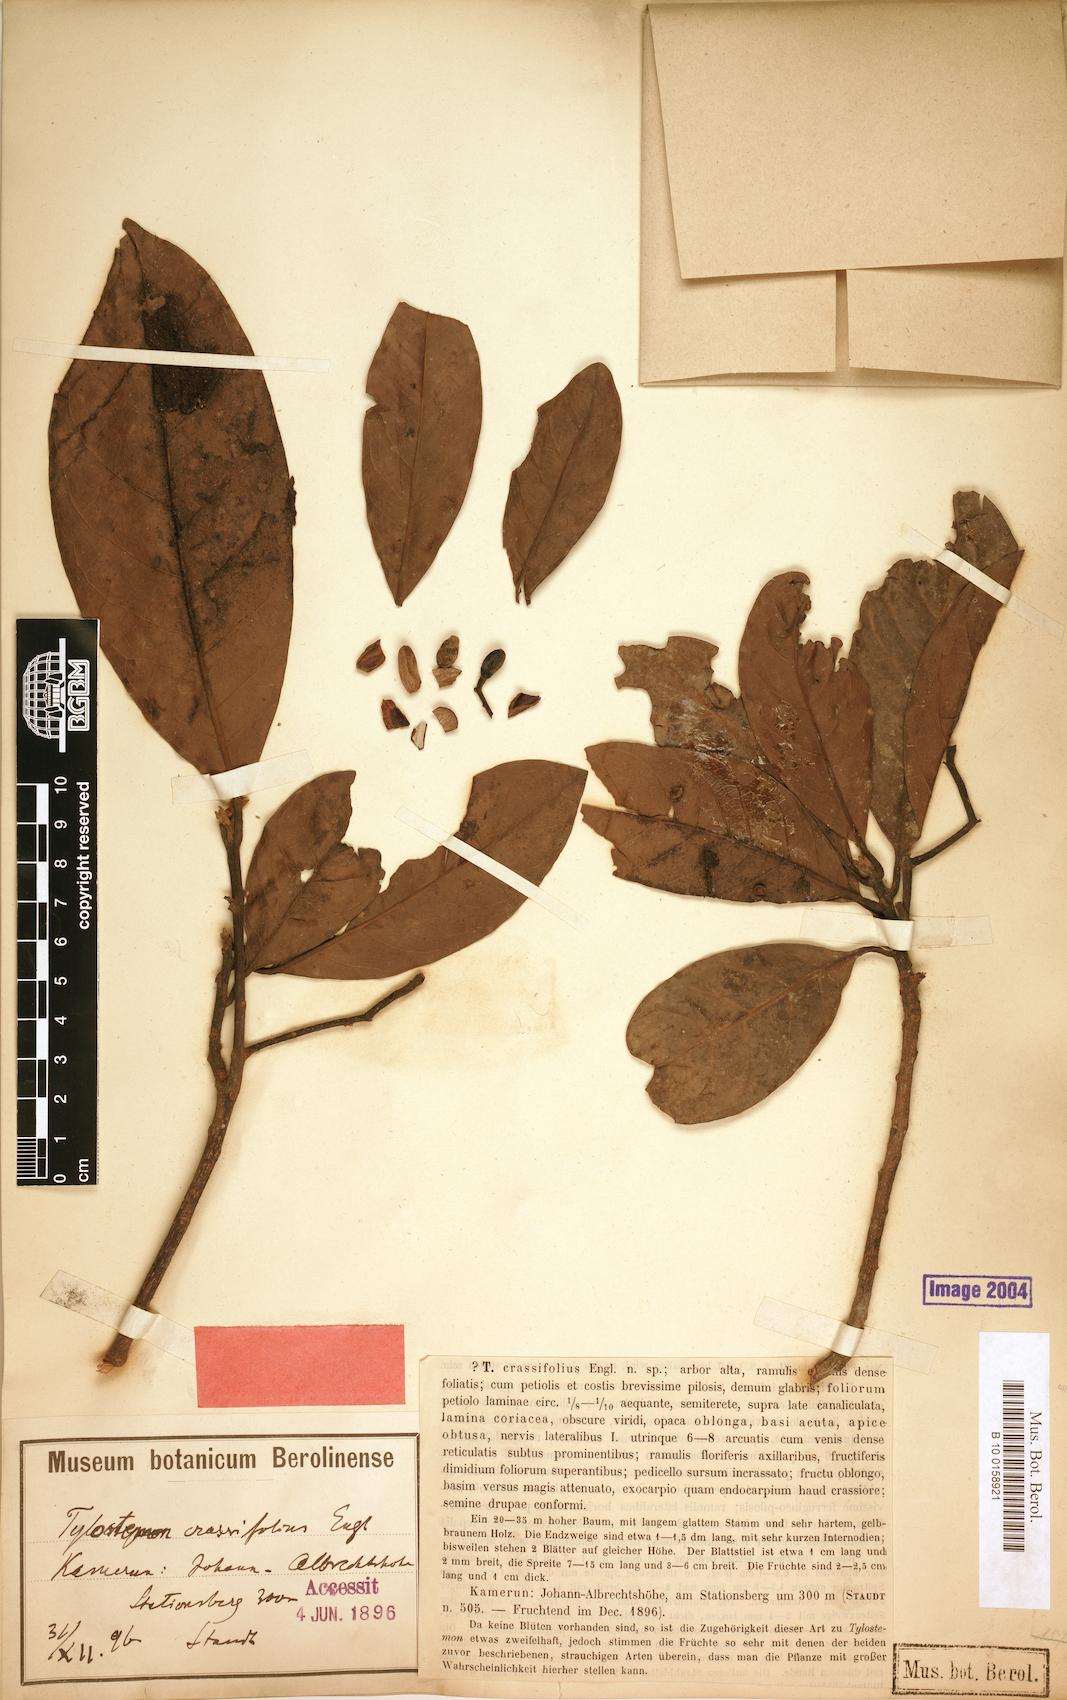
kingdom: Plantae
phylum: Tracheophyta
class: Magnoliopsida
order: Laurales
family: Lauraceae
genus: Beilschmiedia
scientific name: Beilschmiedia gaboonensis
